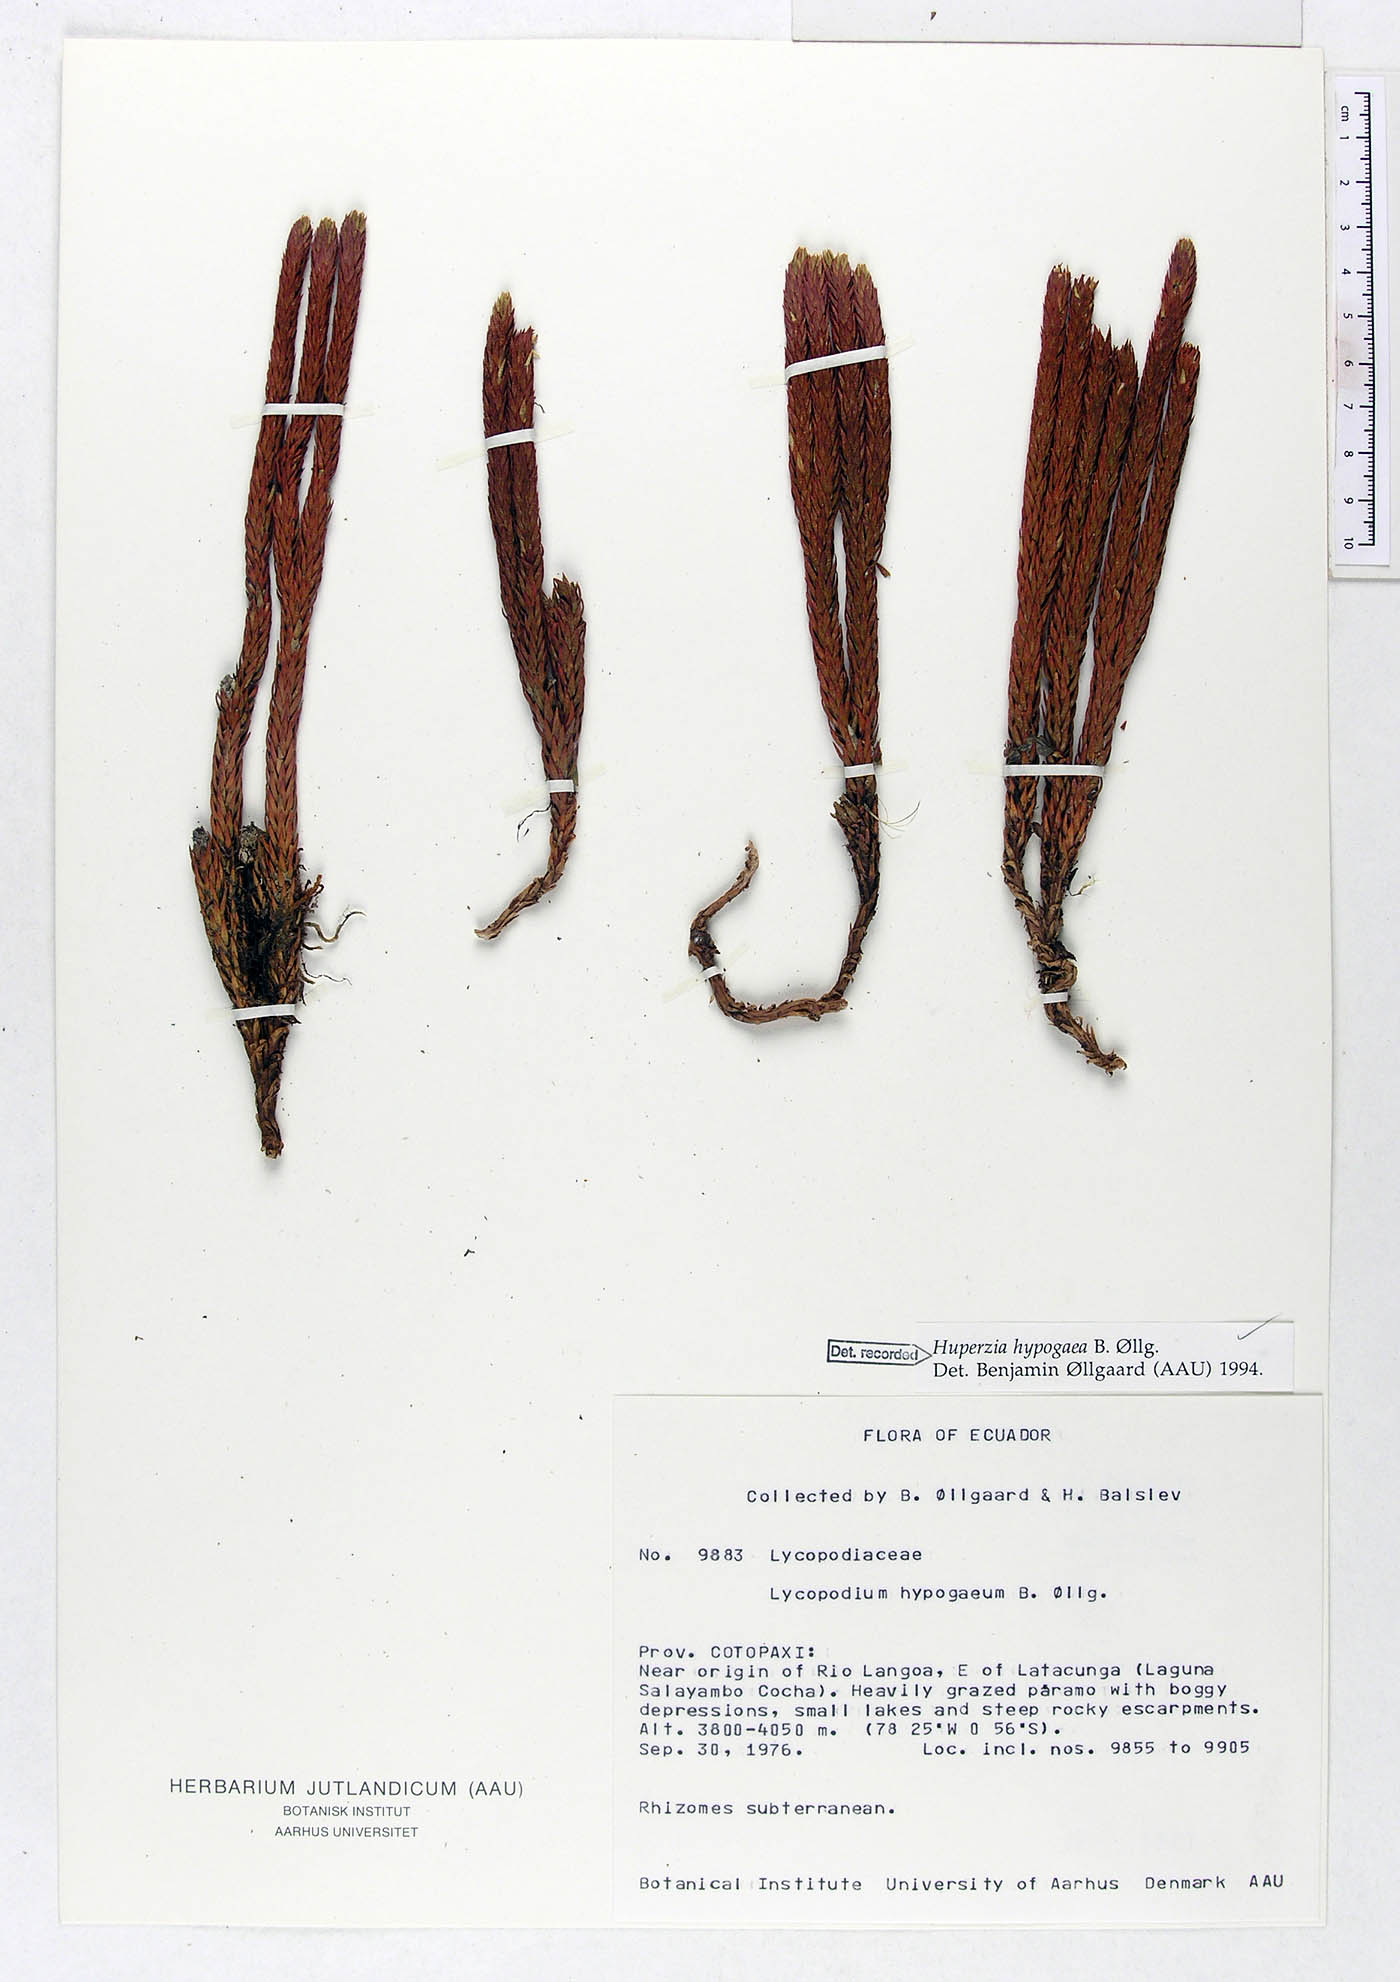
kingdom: Plantae
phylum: Tracheophyta
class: Lycopodiopsida
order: Lycopodiales
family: Lycopodiaceae
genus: Phlegmariurus
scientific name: Phlegmariurus hypogaeus
